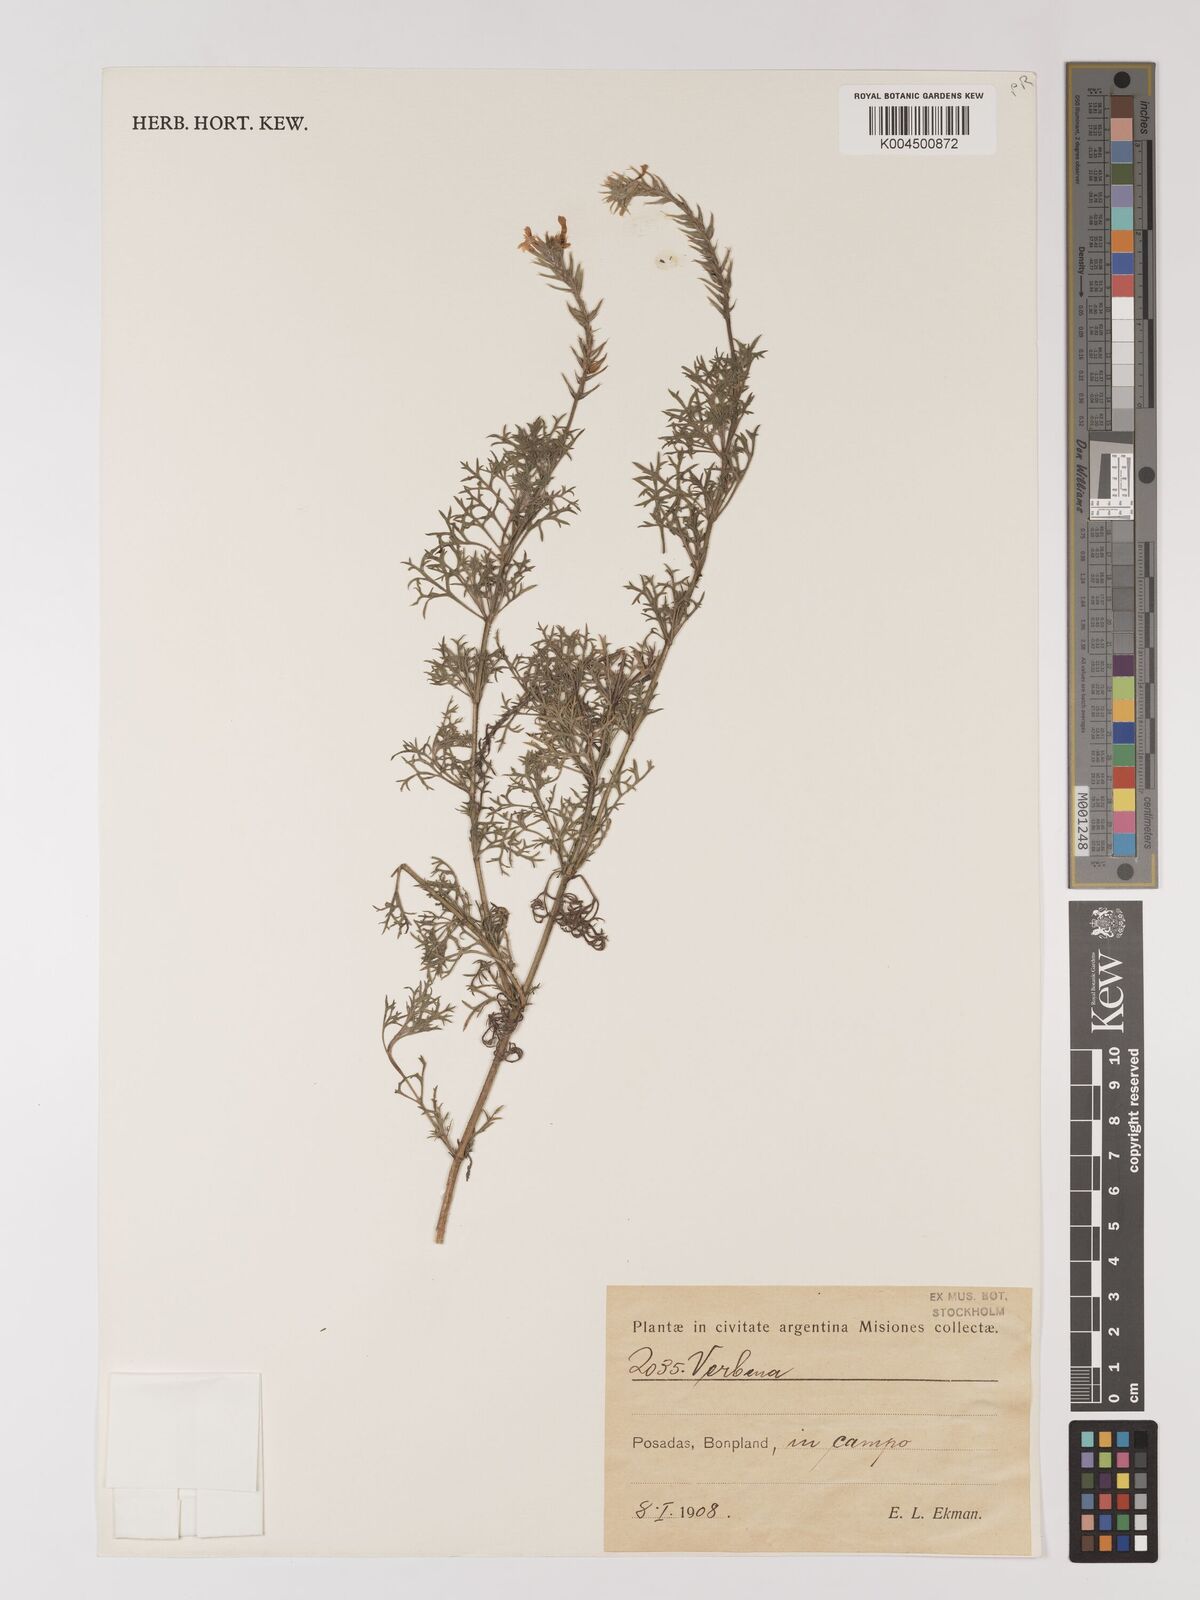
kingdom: Plantae
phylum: Tracheophyta
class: Magnoliopsida
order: Lamiales
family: Verbenaceae
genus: Verbena
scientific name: Verbena
